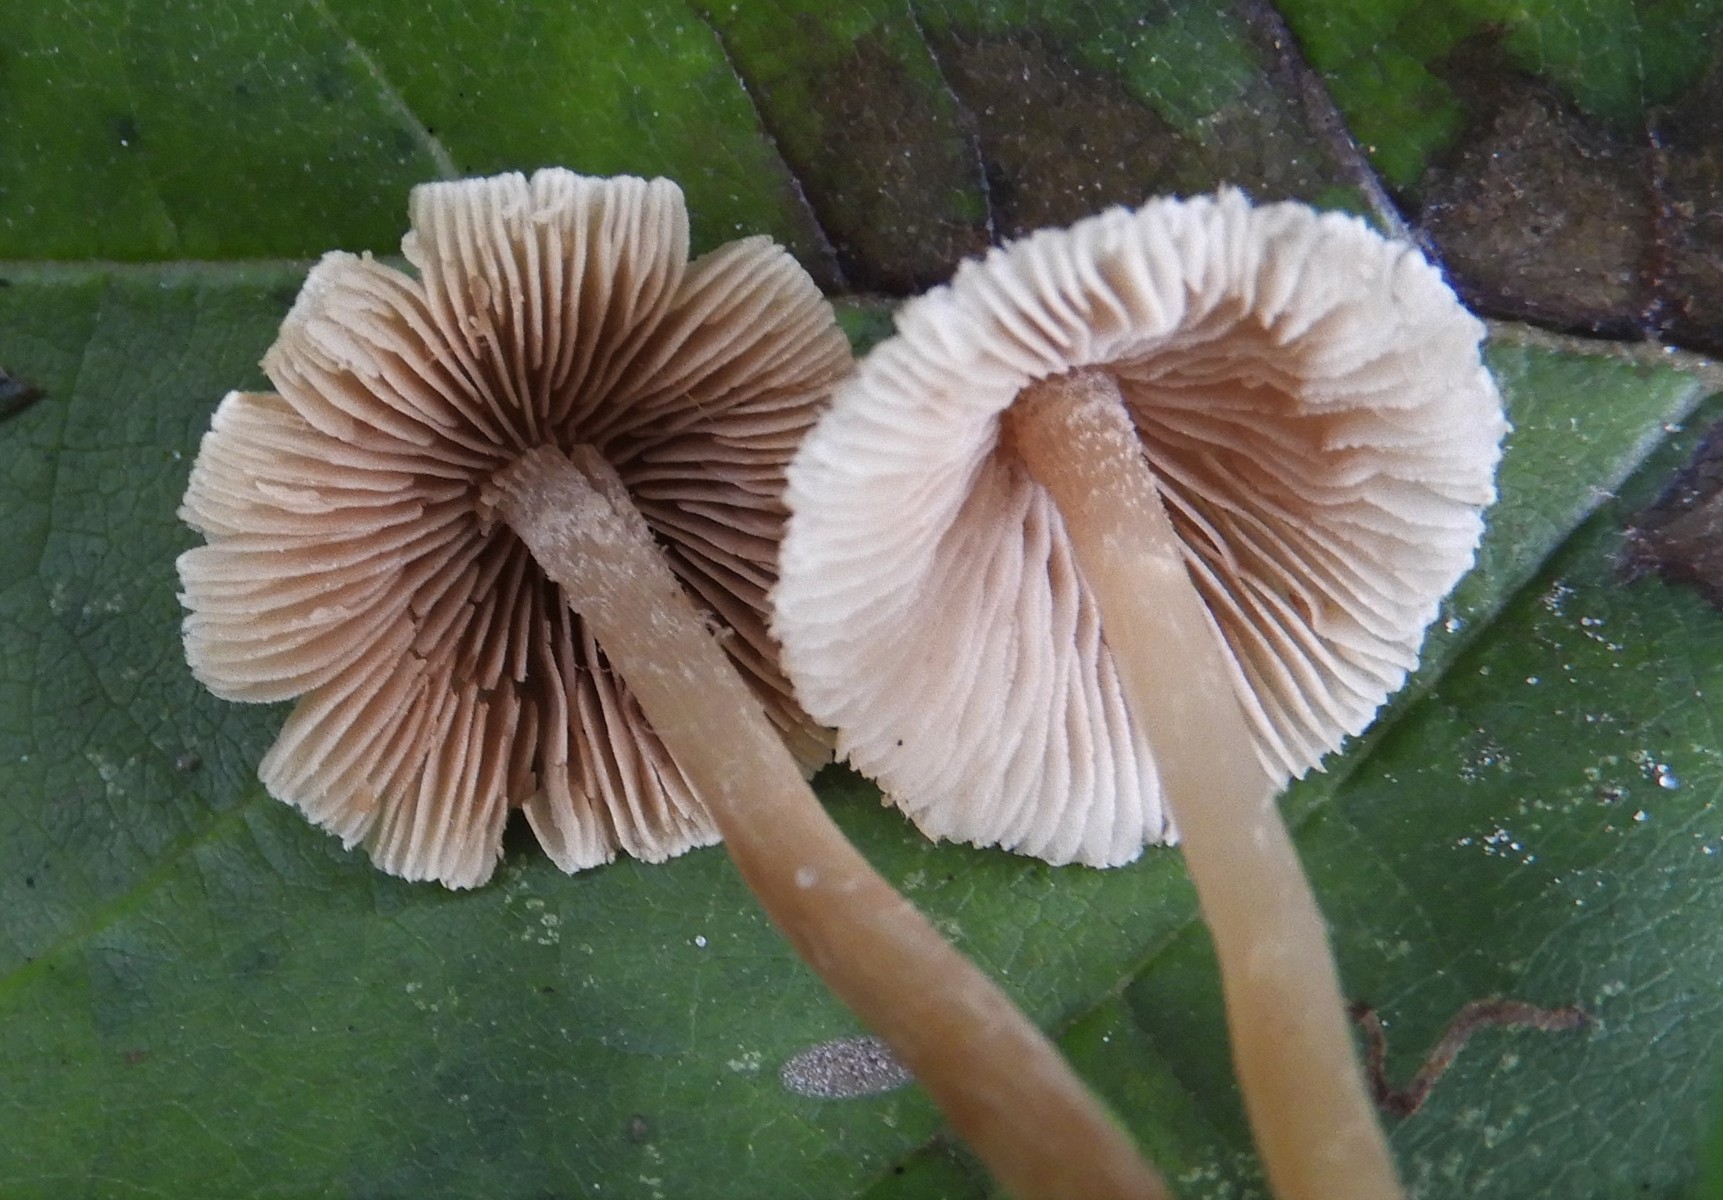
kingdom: Fungi
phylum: Basidiomycota
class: Agaricomycetes
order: Agaricales
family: Mycenaceae
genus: Mycena
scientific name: Mycena zephirus
